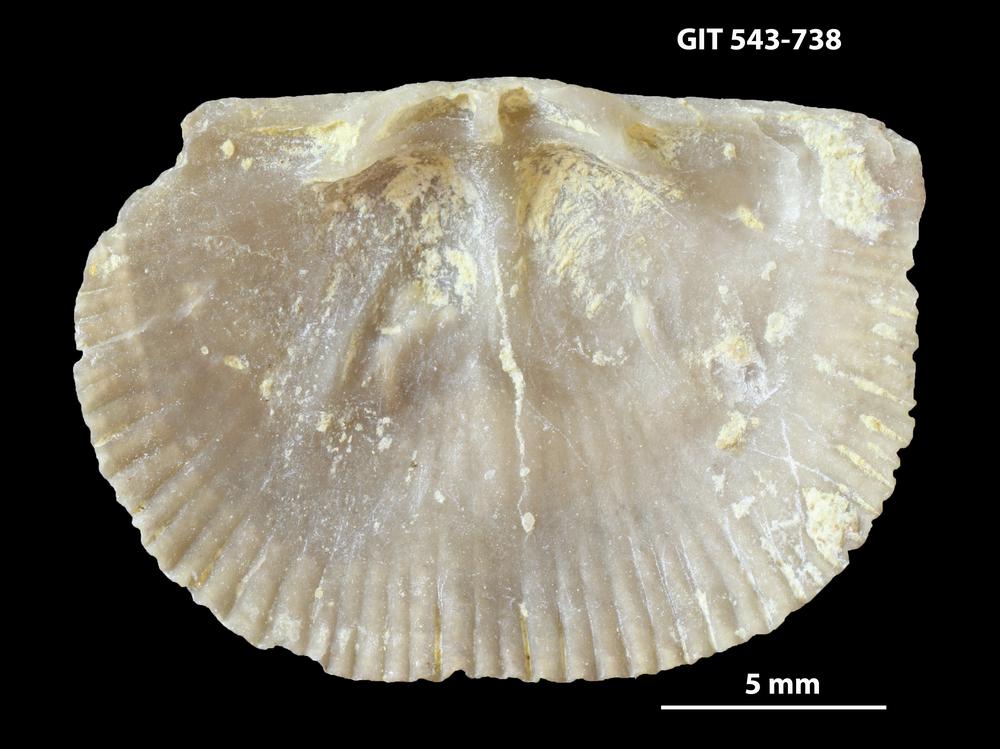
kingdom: Animalia
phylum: Brachiopoda
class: Rhynchonellata
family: Clitambonitidae
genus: Vellamo
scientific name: Vellamo oandoensis
